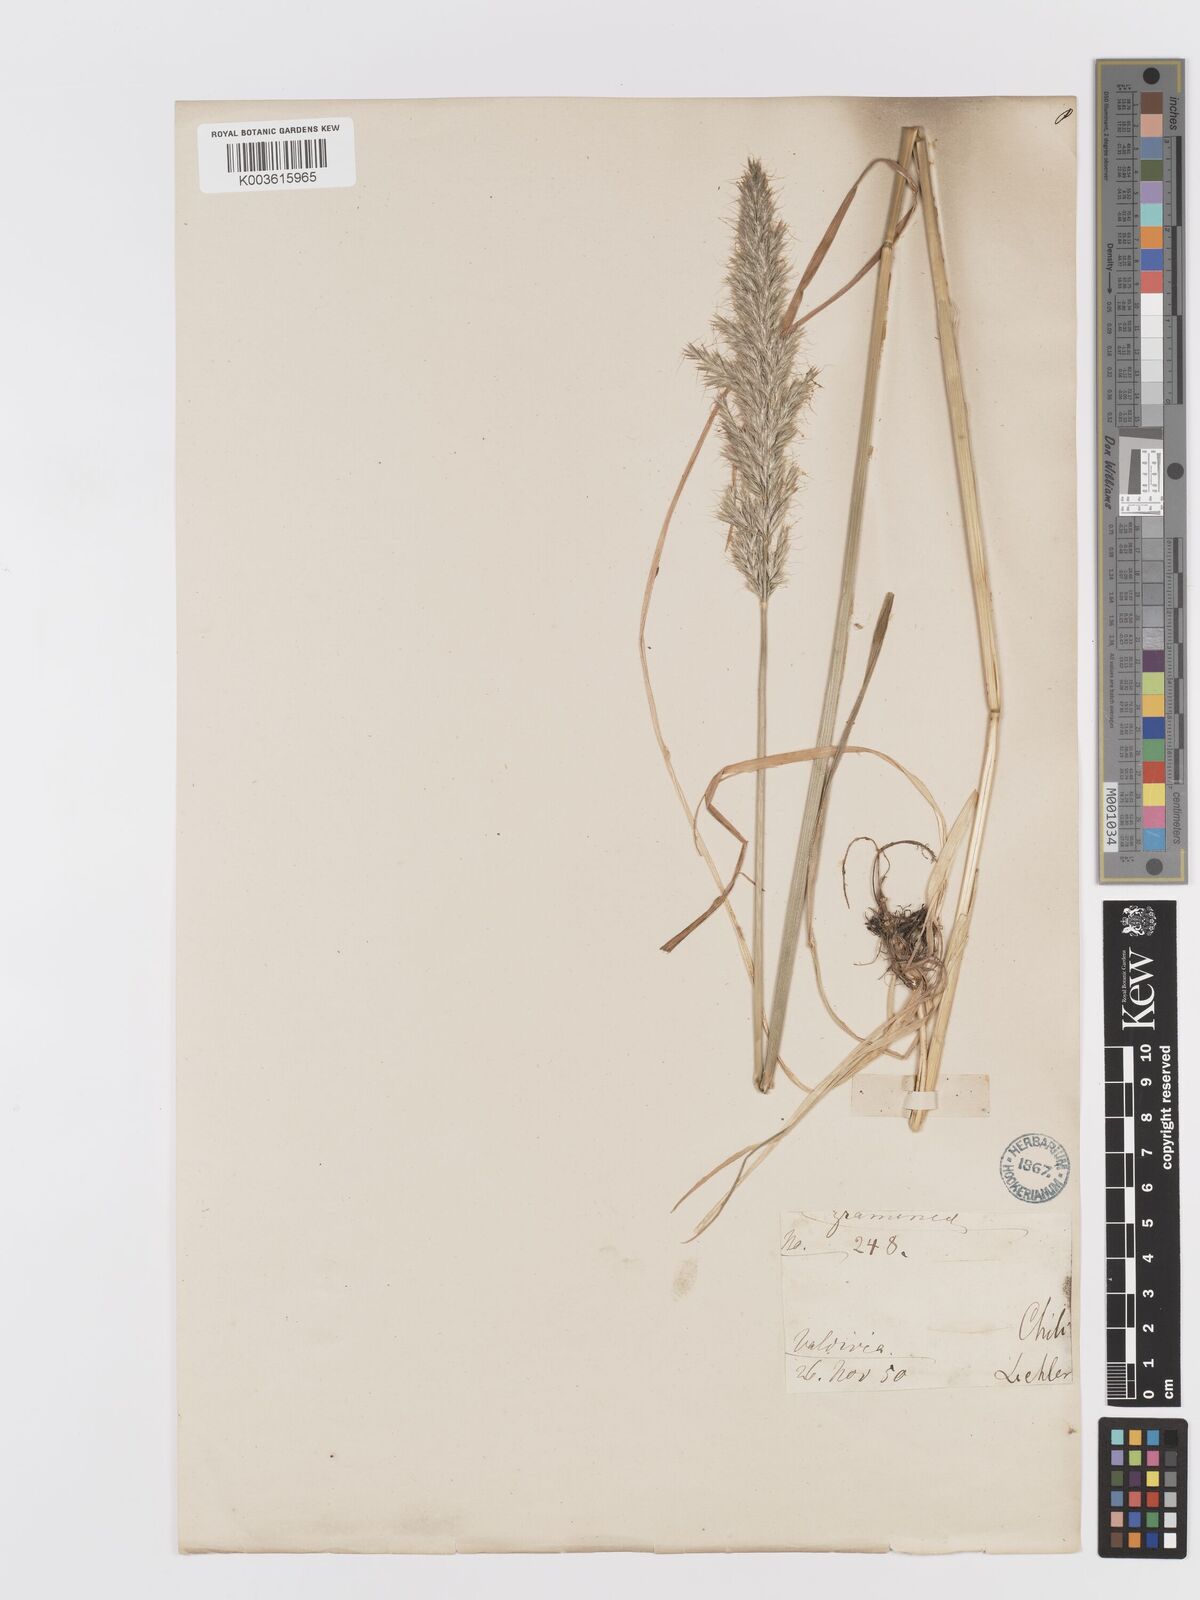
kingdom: Plantae
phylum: Tracheophyta
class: Liliopsida
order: Poales
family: Poaceae
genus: Trisetum
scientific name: Trisetum
